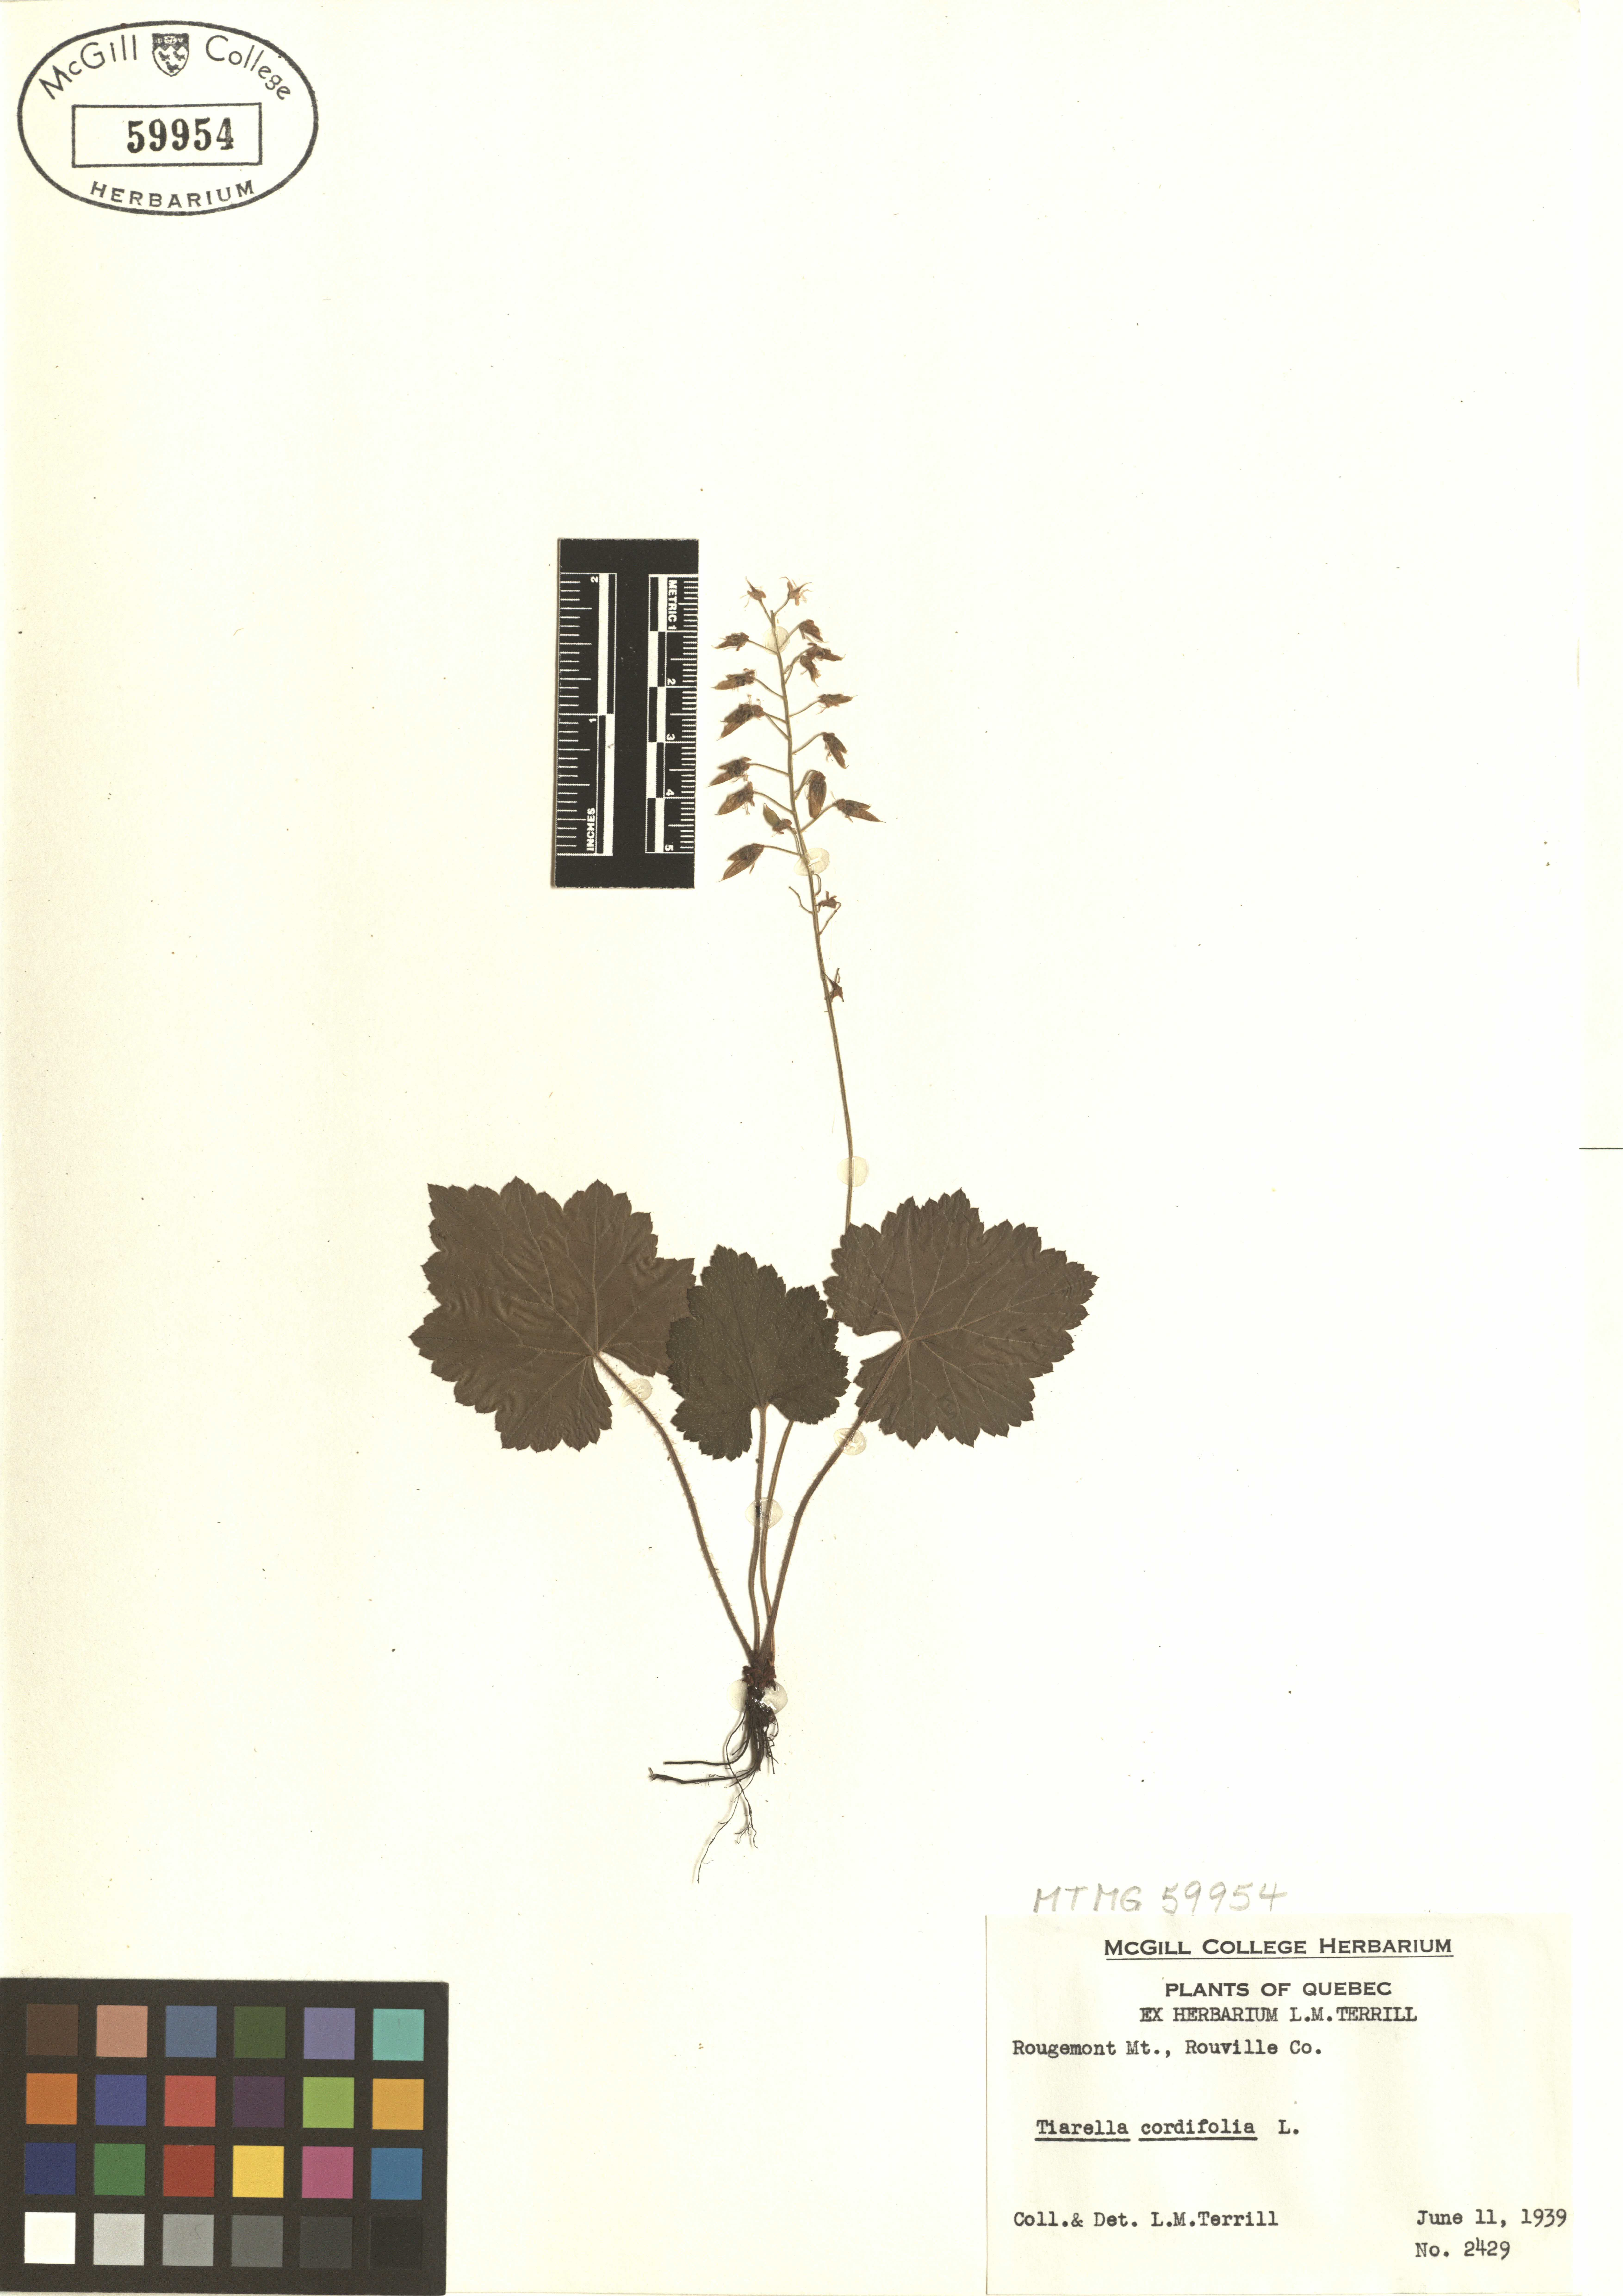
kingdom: Plantae
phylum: Tracheophyta
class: Magnoliopsida
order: Saxifragales
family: Saxifragaceae
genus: Tiarella
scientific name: Tiarella cordifolia
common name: Foamflower
